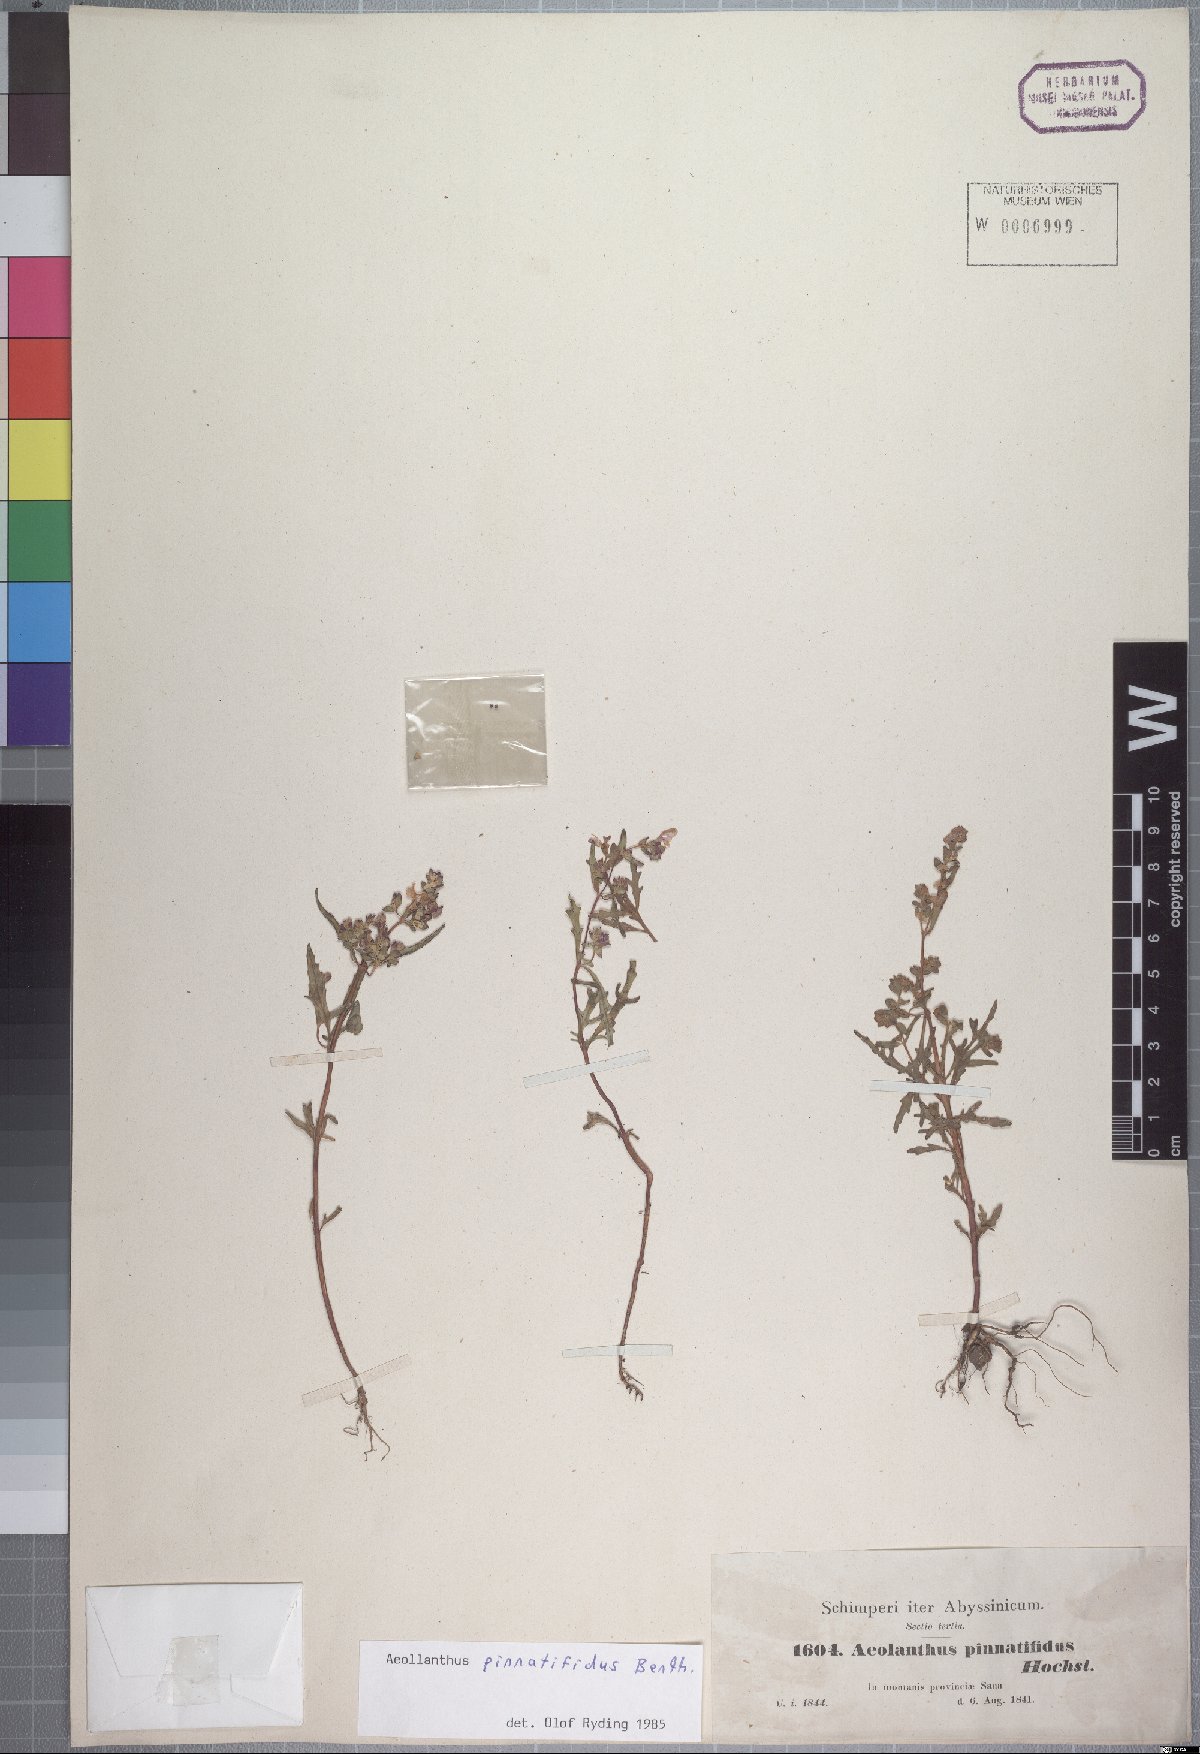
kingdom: Plantae
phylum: Tracheophyta
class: Magnoliopsida
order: Lamiales
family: Lamiaceae
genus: Aeollanthus
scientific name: Aeollanthus pinnatifidus
